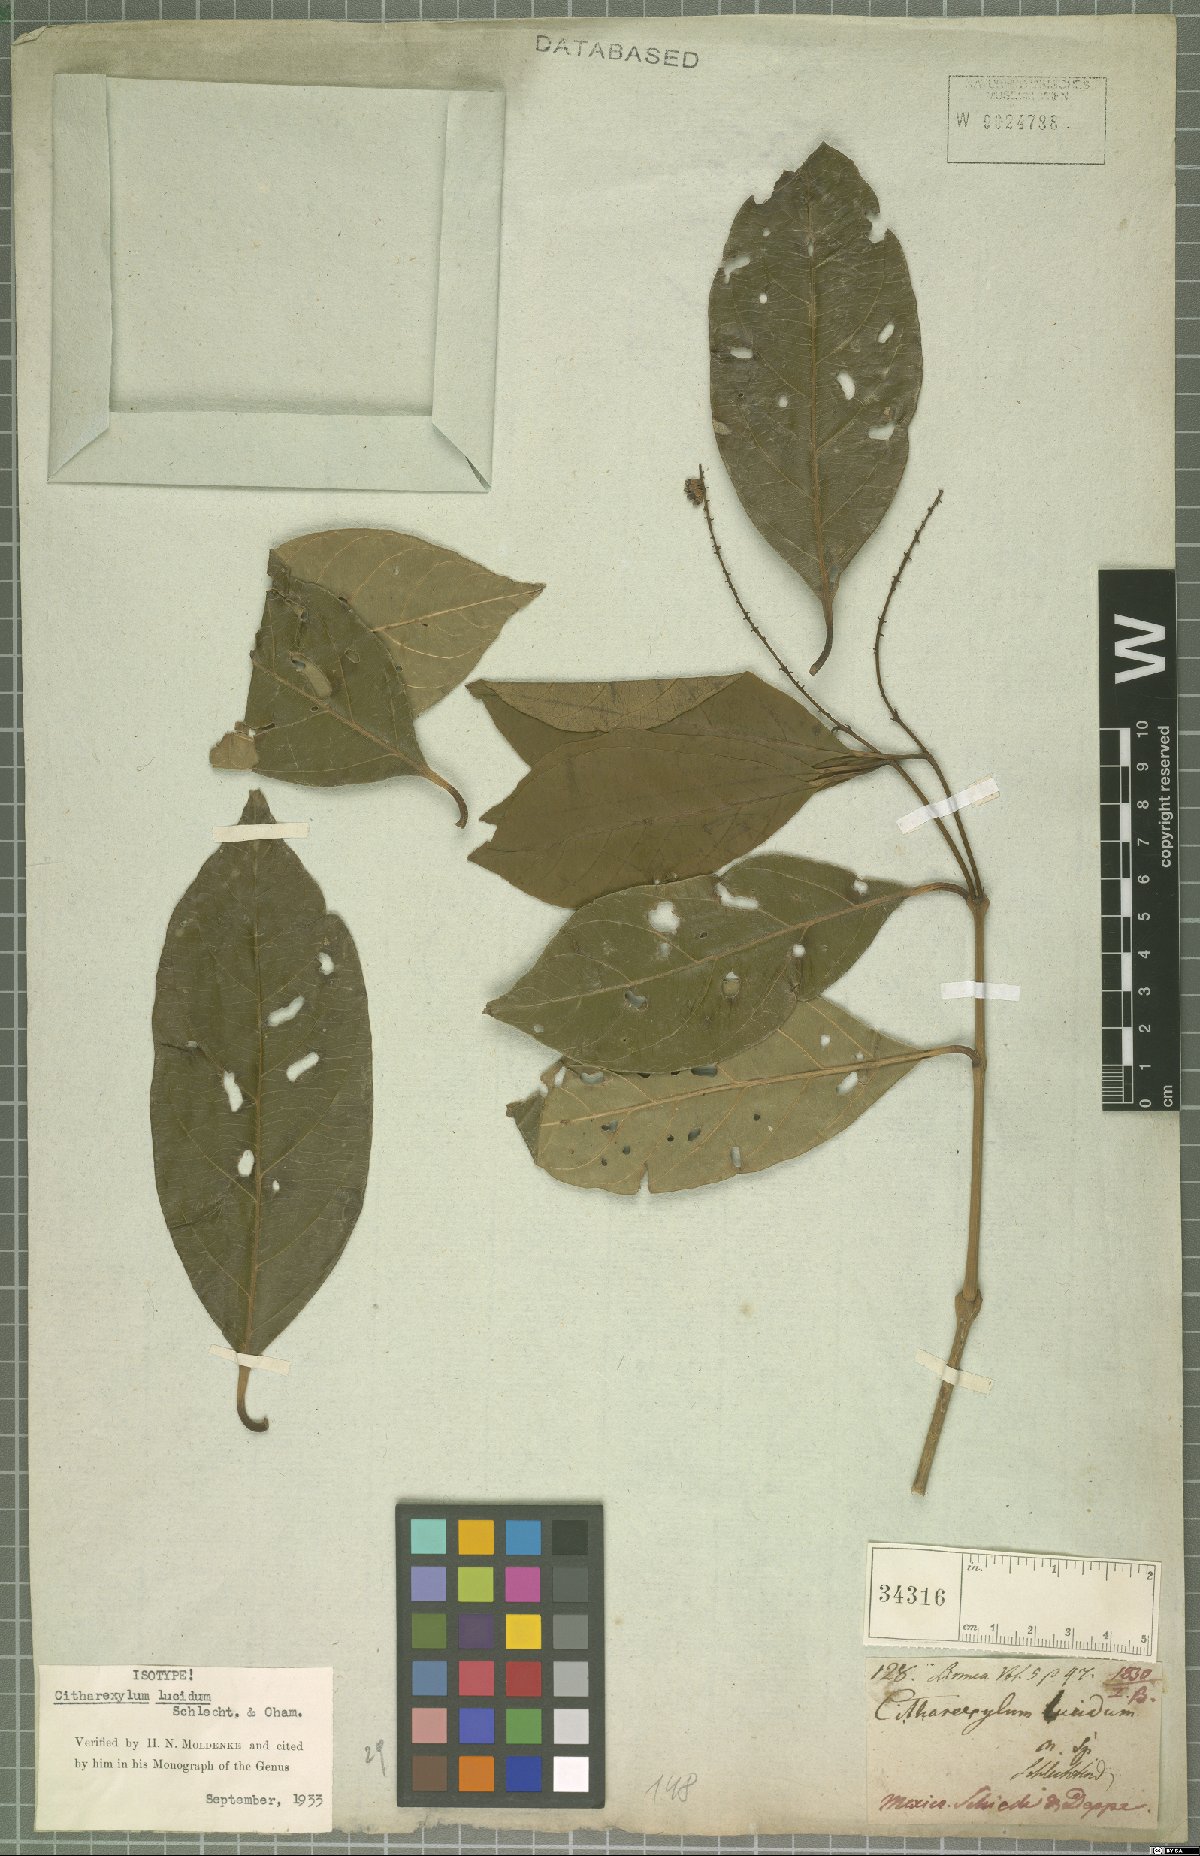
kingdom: Plantae
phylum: Tracheophyta
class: Magnoliopsida
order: Lamiales
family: Verbenaceae
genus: Citharexylum
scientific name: Citharexylum lucidum
